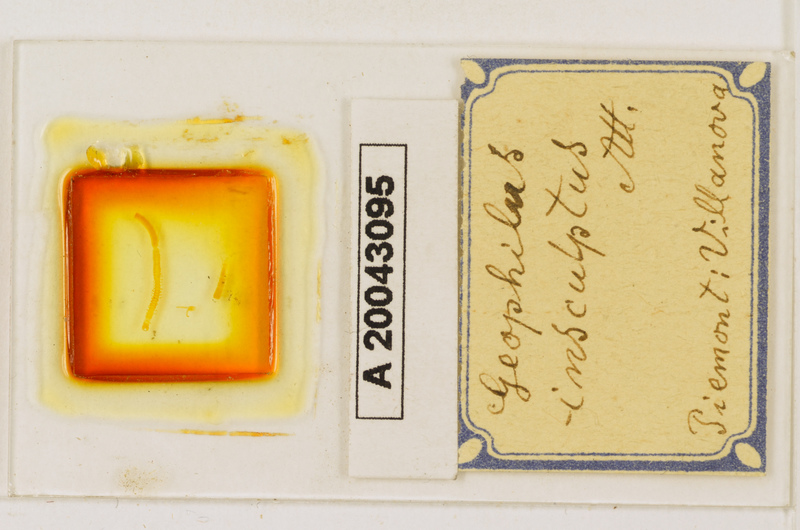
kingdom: Animalia
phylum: Arthropoda
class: Chilopoda
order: Geophilomorpha
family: Geophilidae
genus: Geophilus
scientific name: Geophilus insculptus
